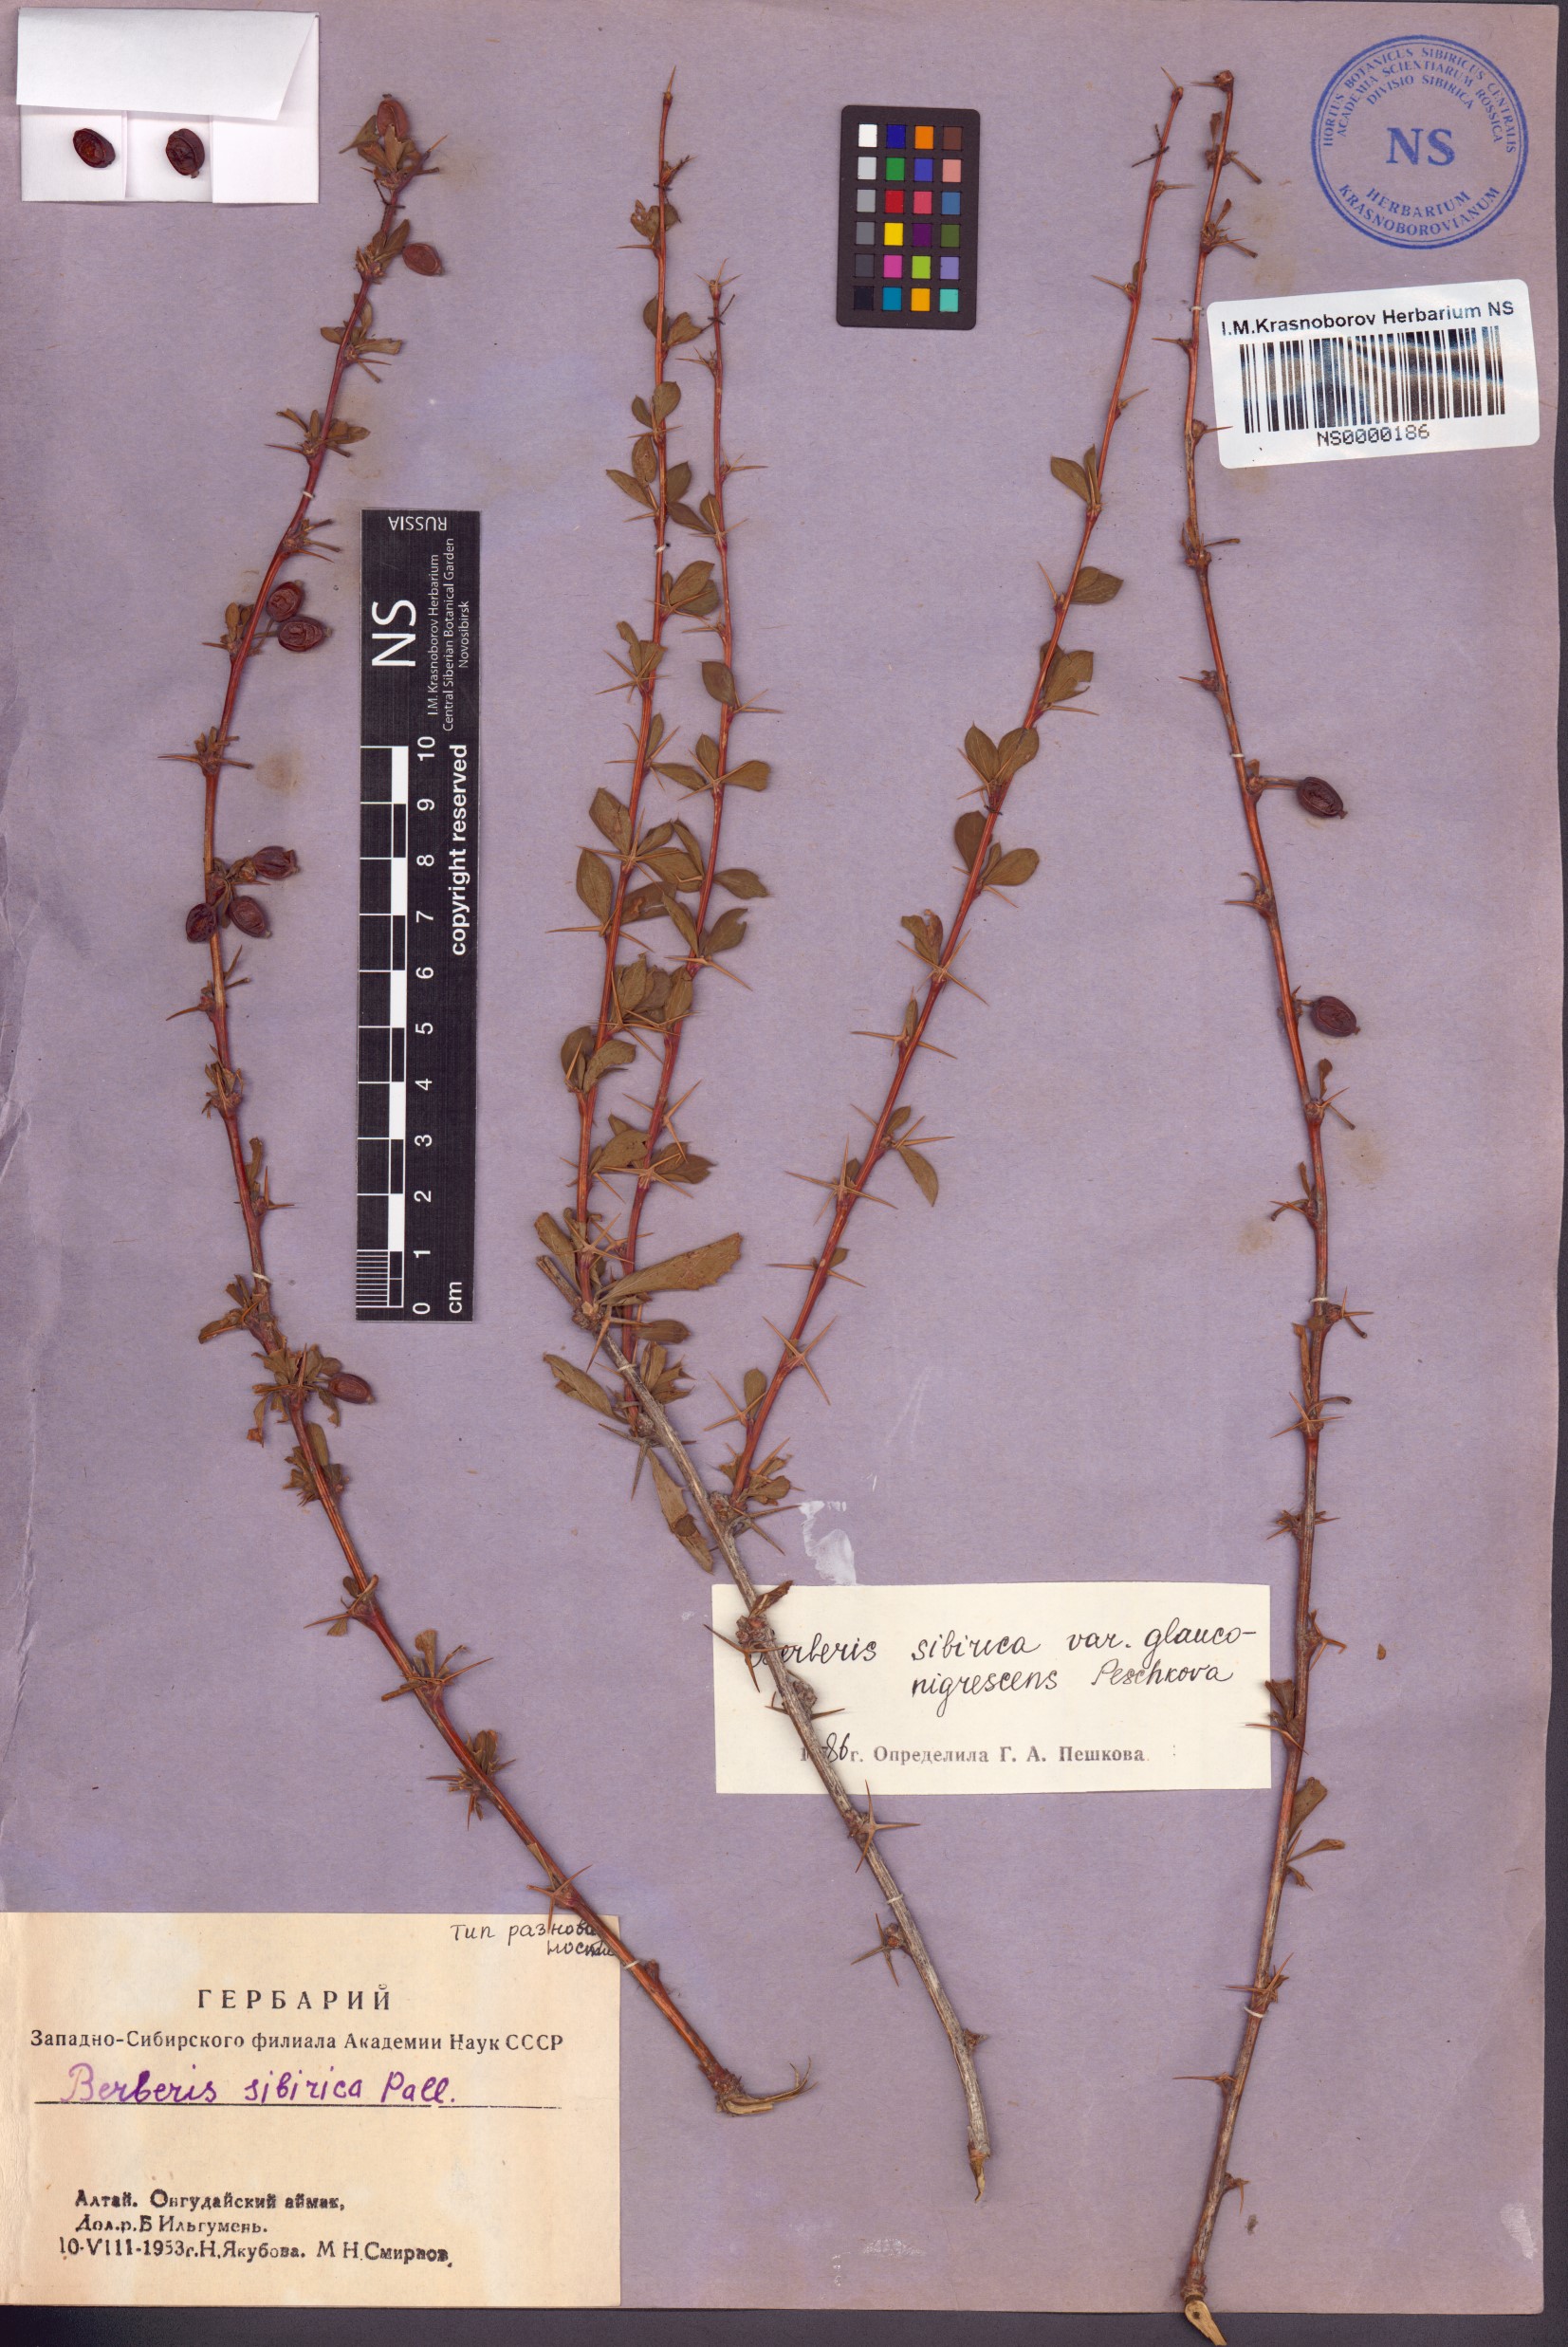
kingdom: Plantae
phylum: Tracheophyta
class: Magnoliopsida
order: Ranunculales
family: Berberidaceae
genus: Berberis
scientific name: Berberis sibirica
